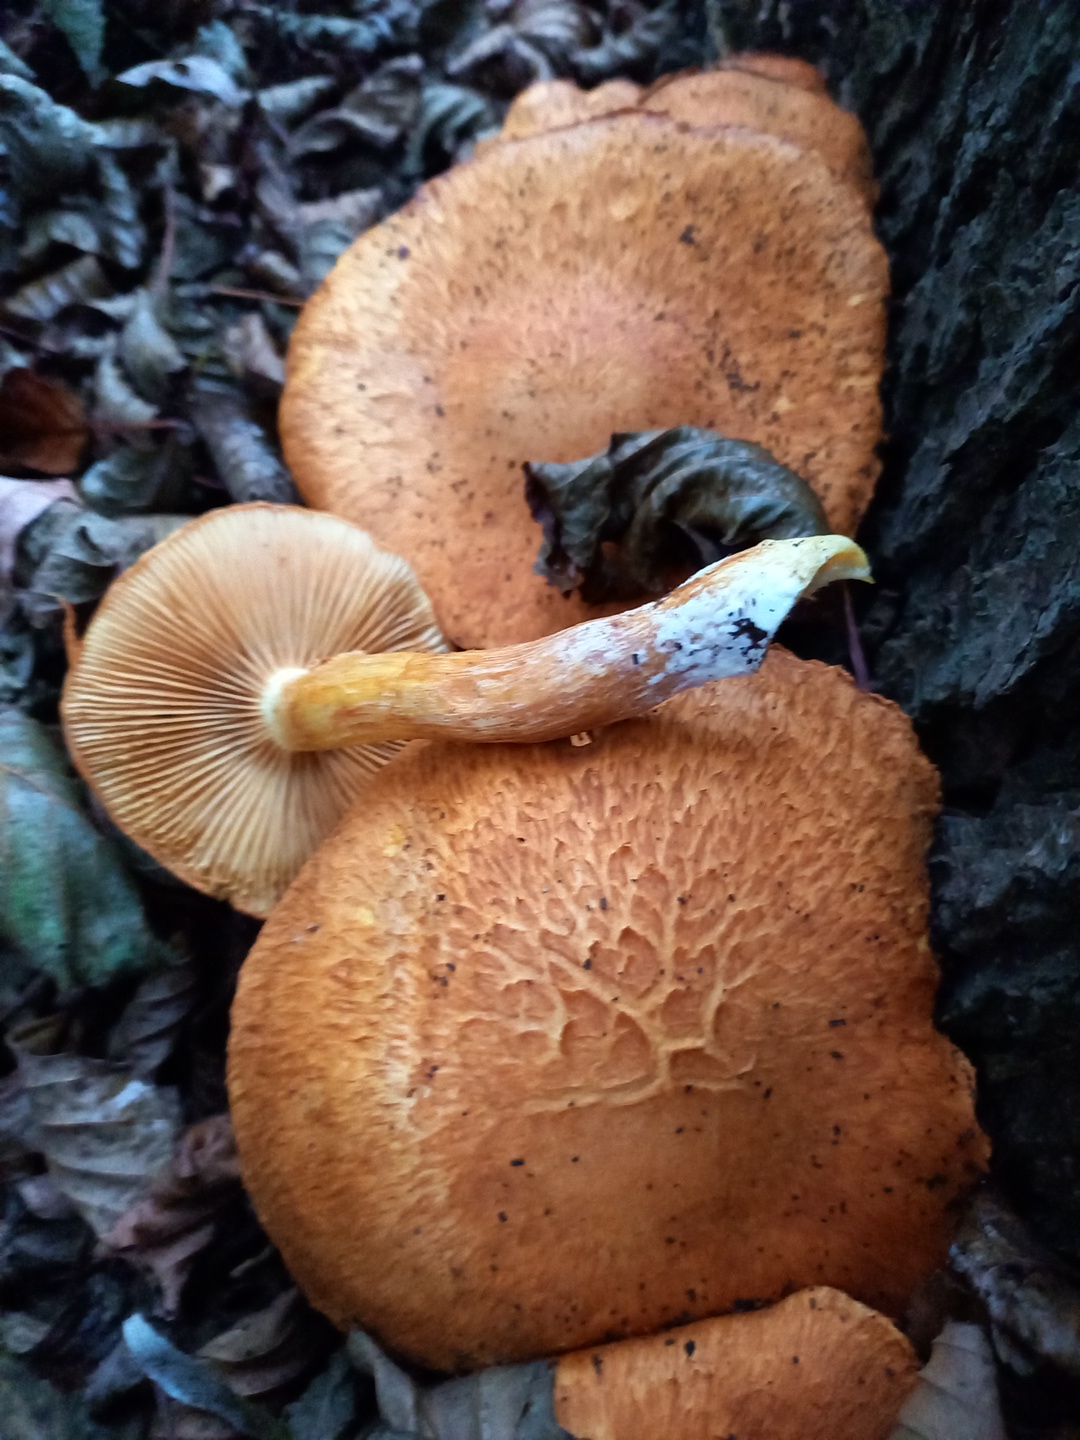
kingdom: Fungi
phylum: Basidiomycota
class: Agaricomycetes
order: Agaricales
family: Hymenogastraceae
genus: Gymnopilus
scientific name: Gymnopilus spectabilis
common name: fibret flammehat
